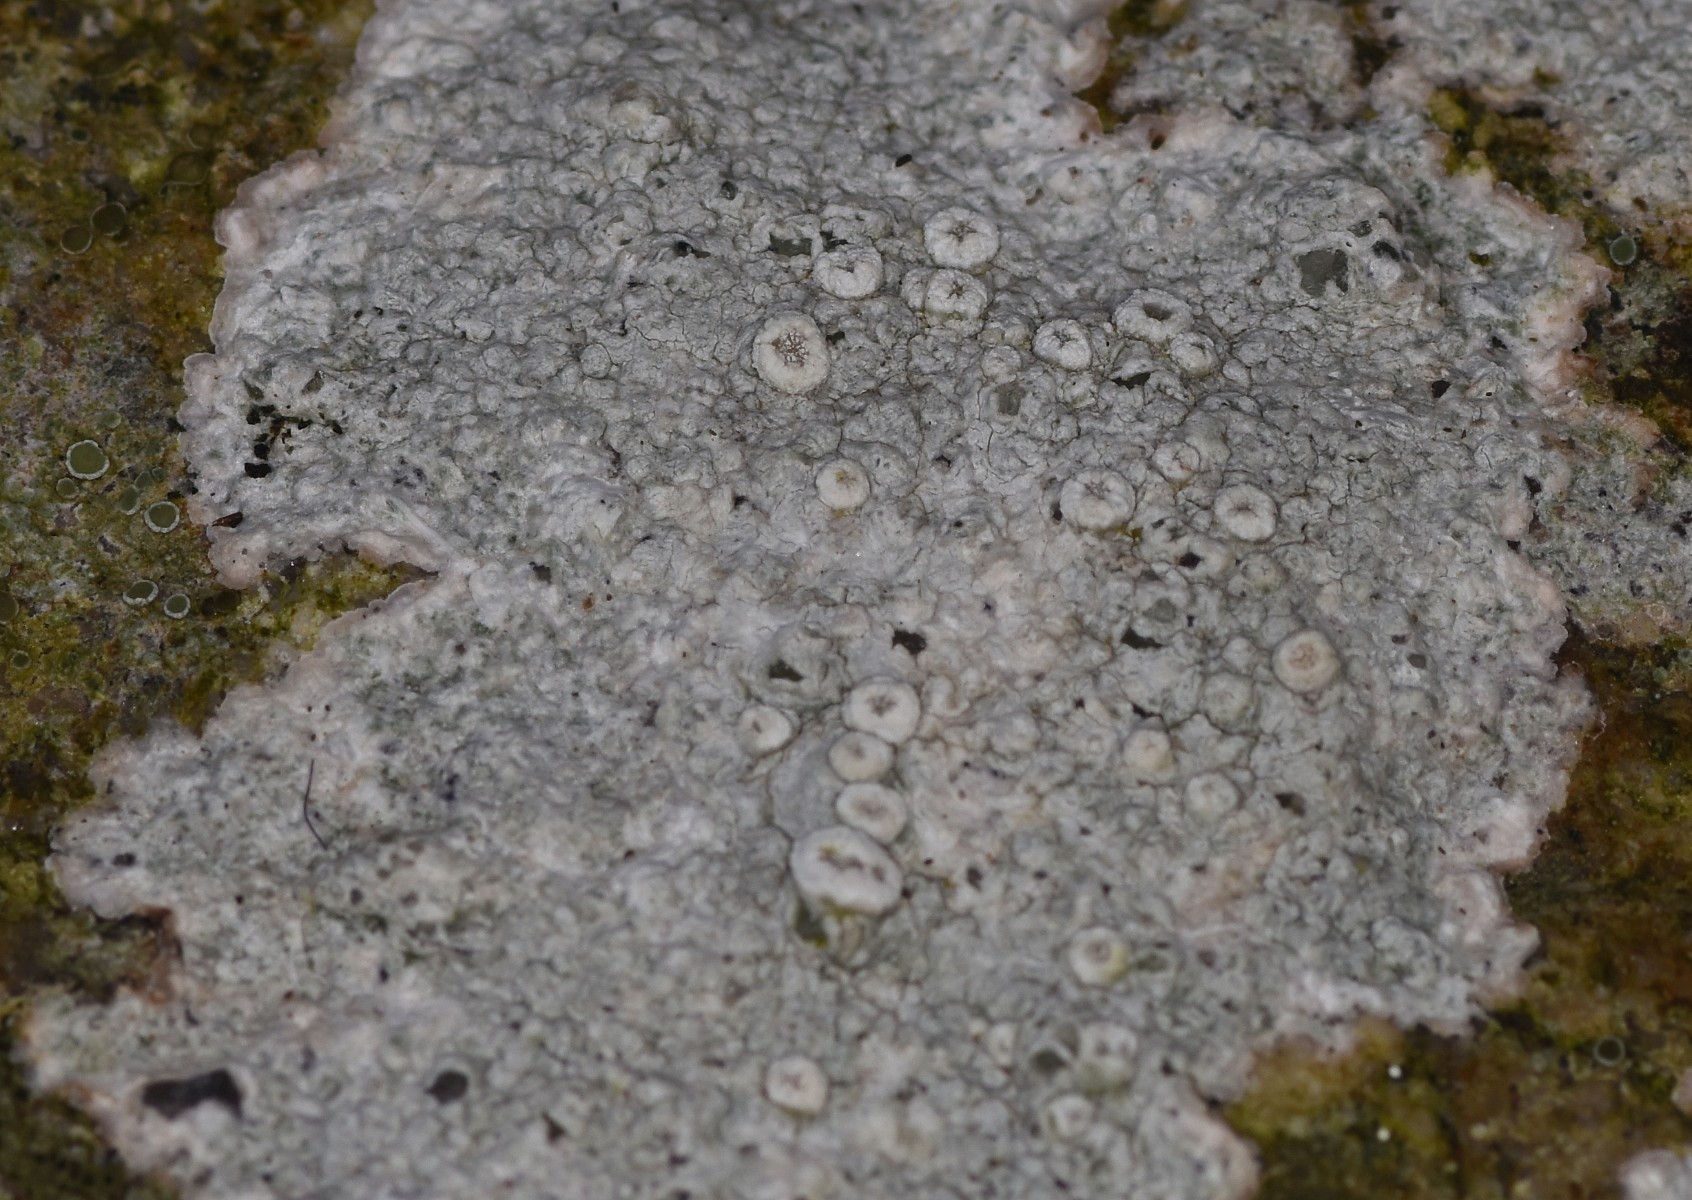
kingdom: Fungi
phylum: Ascomycota
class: Lecanoromycetes
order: Pertusariales
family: Ochrolechiaceae
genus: Ochrolechia
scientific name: Ochrolechia parella
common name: almindelig blegskivelav
